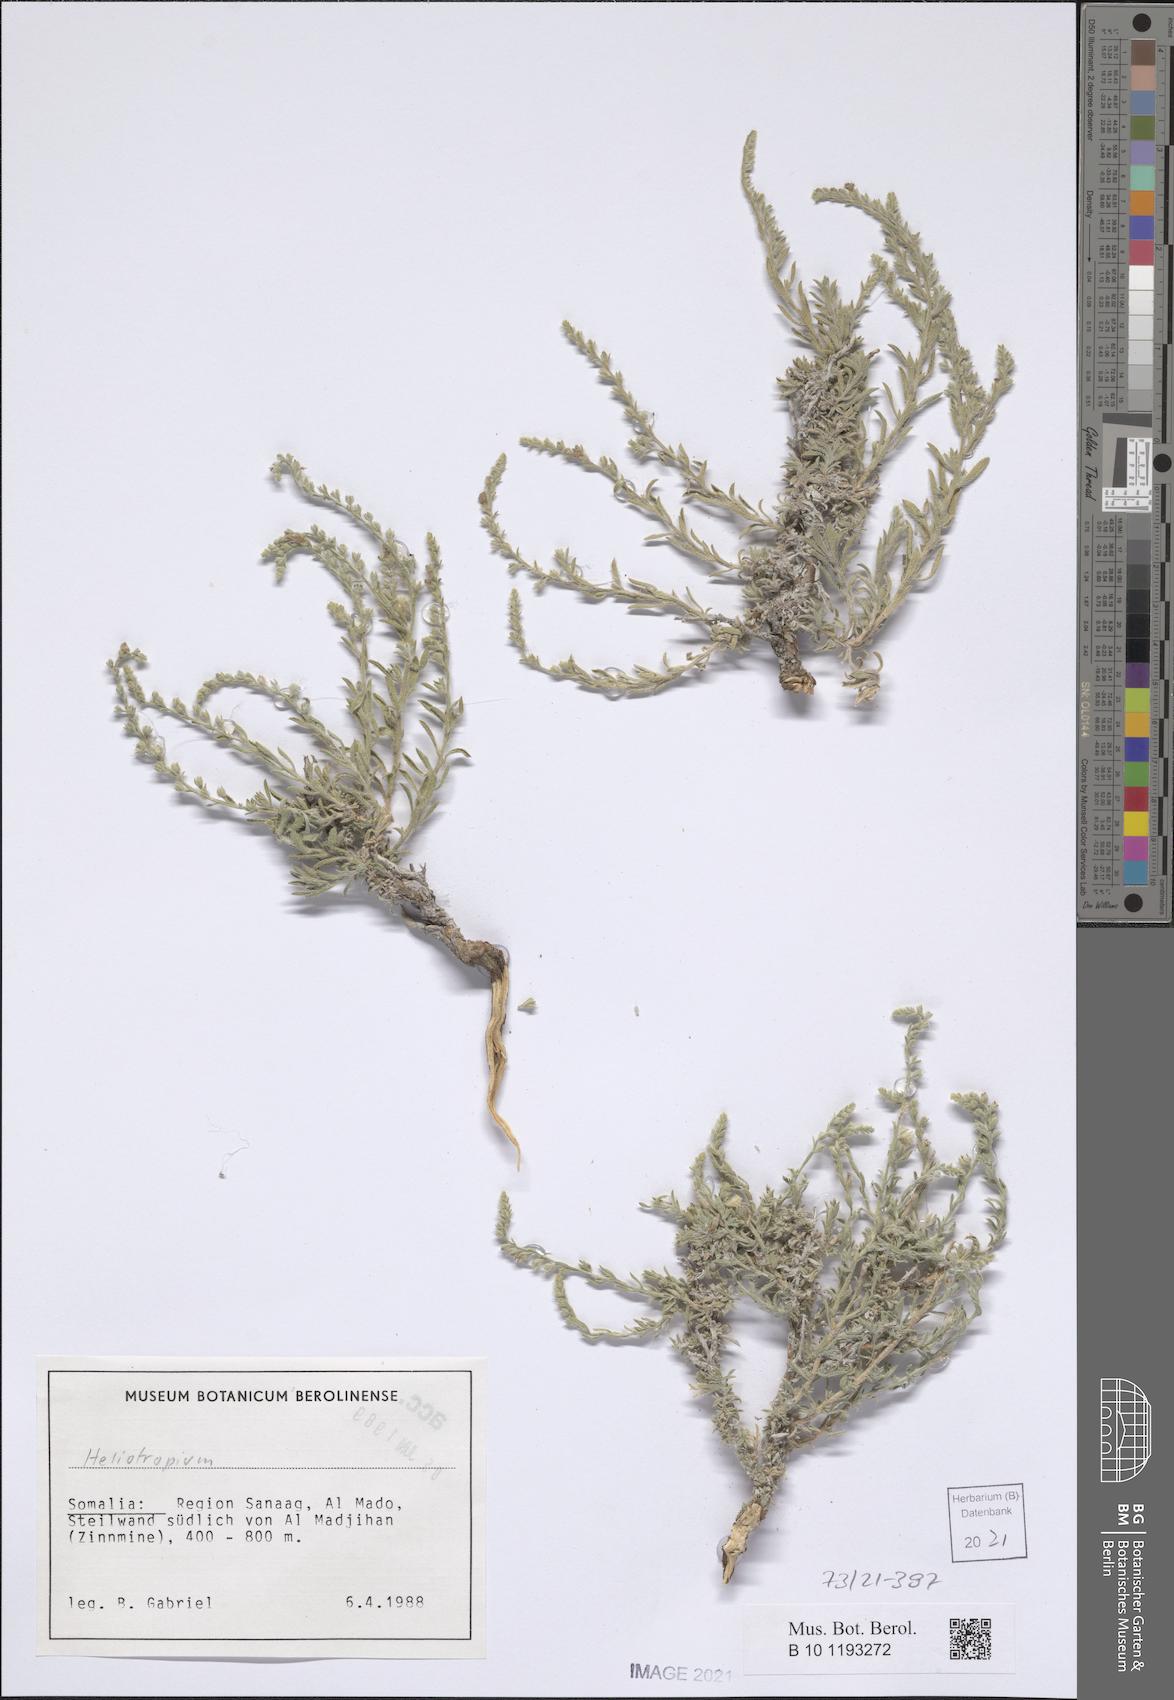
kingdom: Plantae
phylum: Tracheophyta
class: Magnoliopsida
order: Boraginales
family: Boraginaceae
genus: Echiochilon
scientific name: Echiochilon persicum
